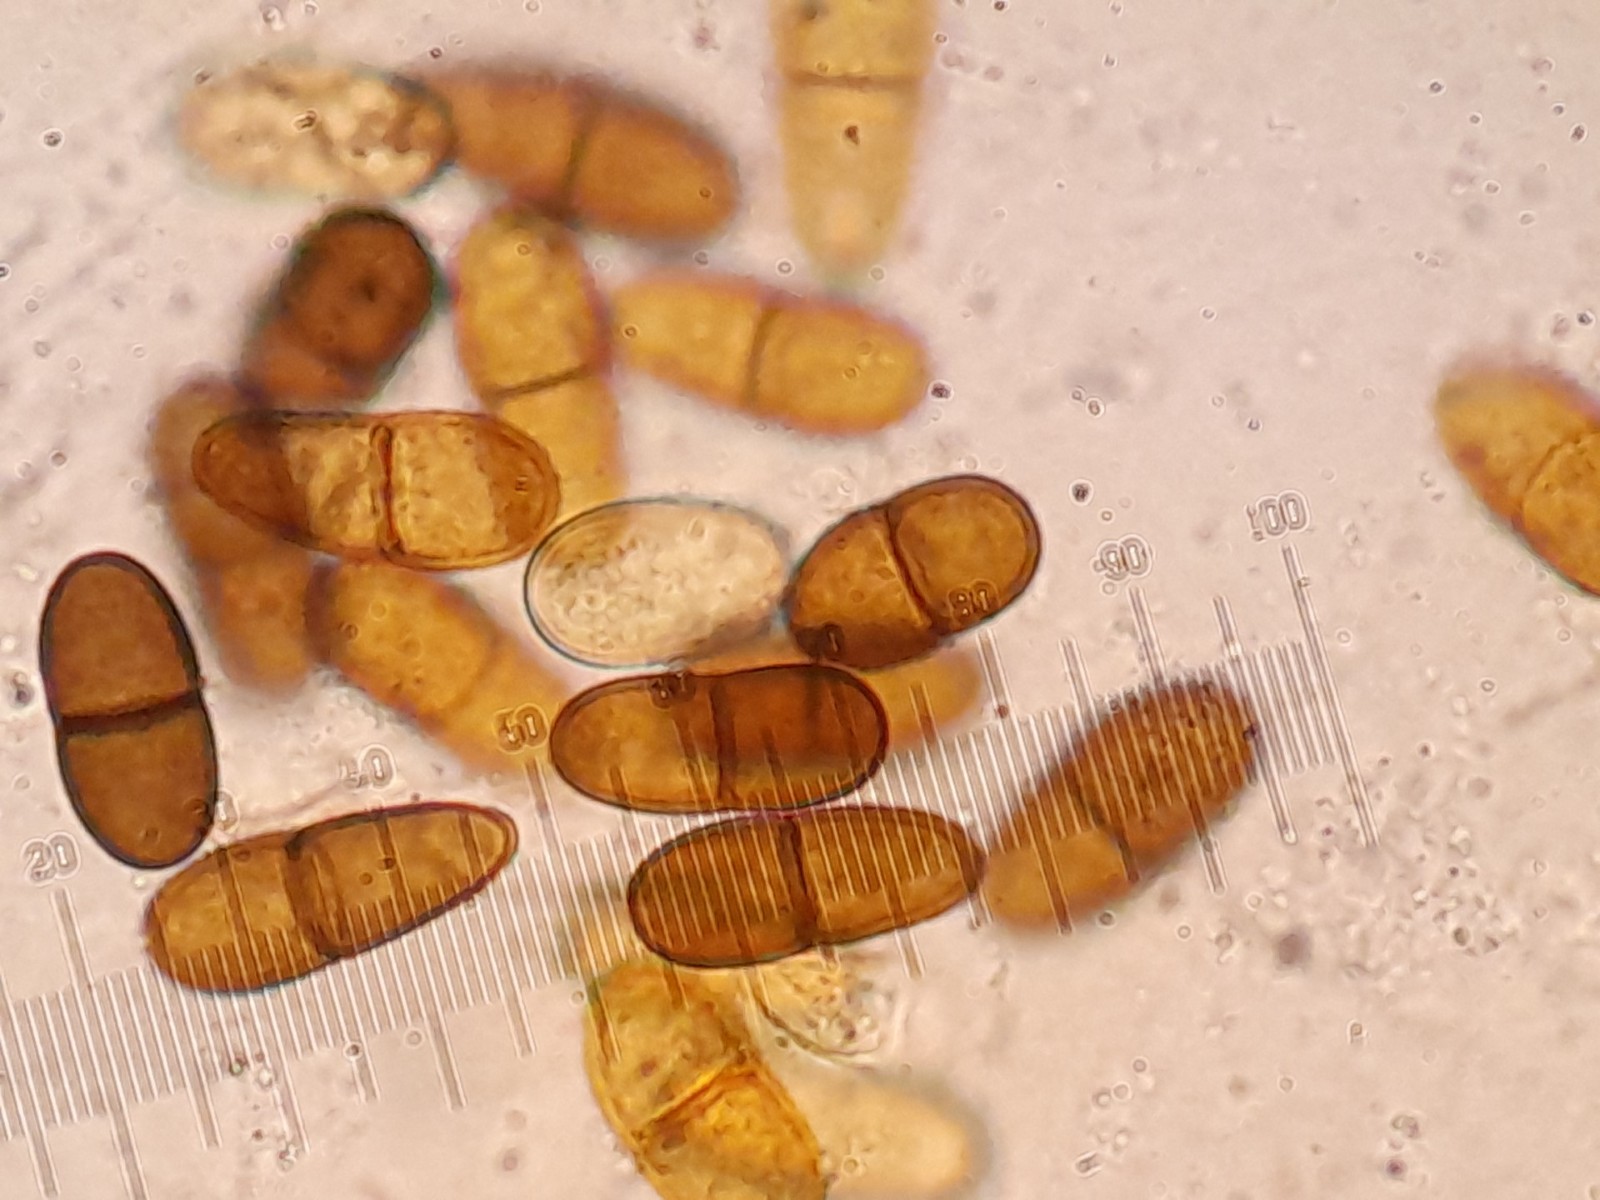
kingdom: Fungi
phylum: Ascomycota
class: Dothideomycetes
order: Botryosphaeriales
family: Botryosphaeriaceae
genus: Diplodia
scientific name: Diplodia
